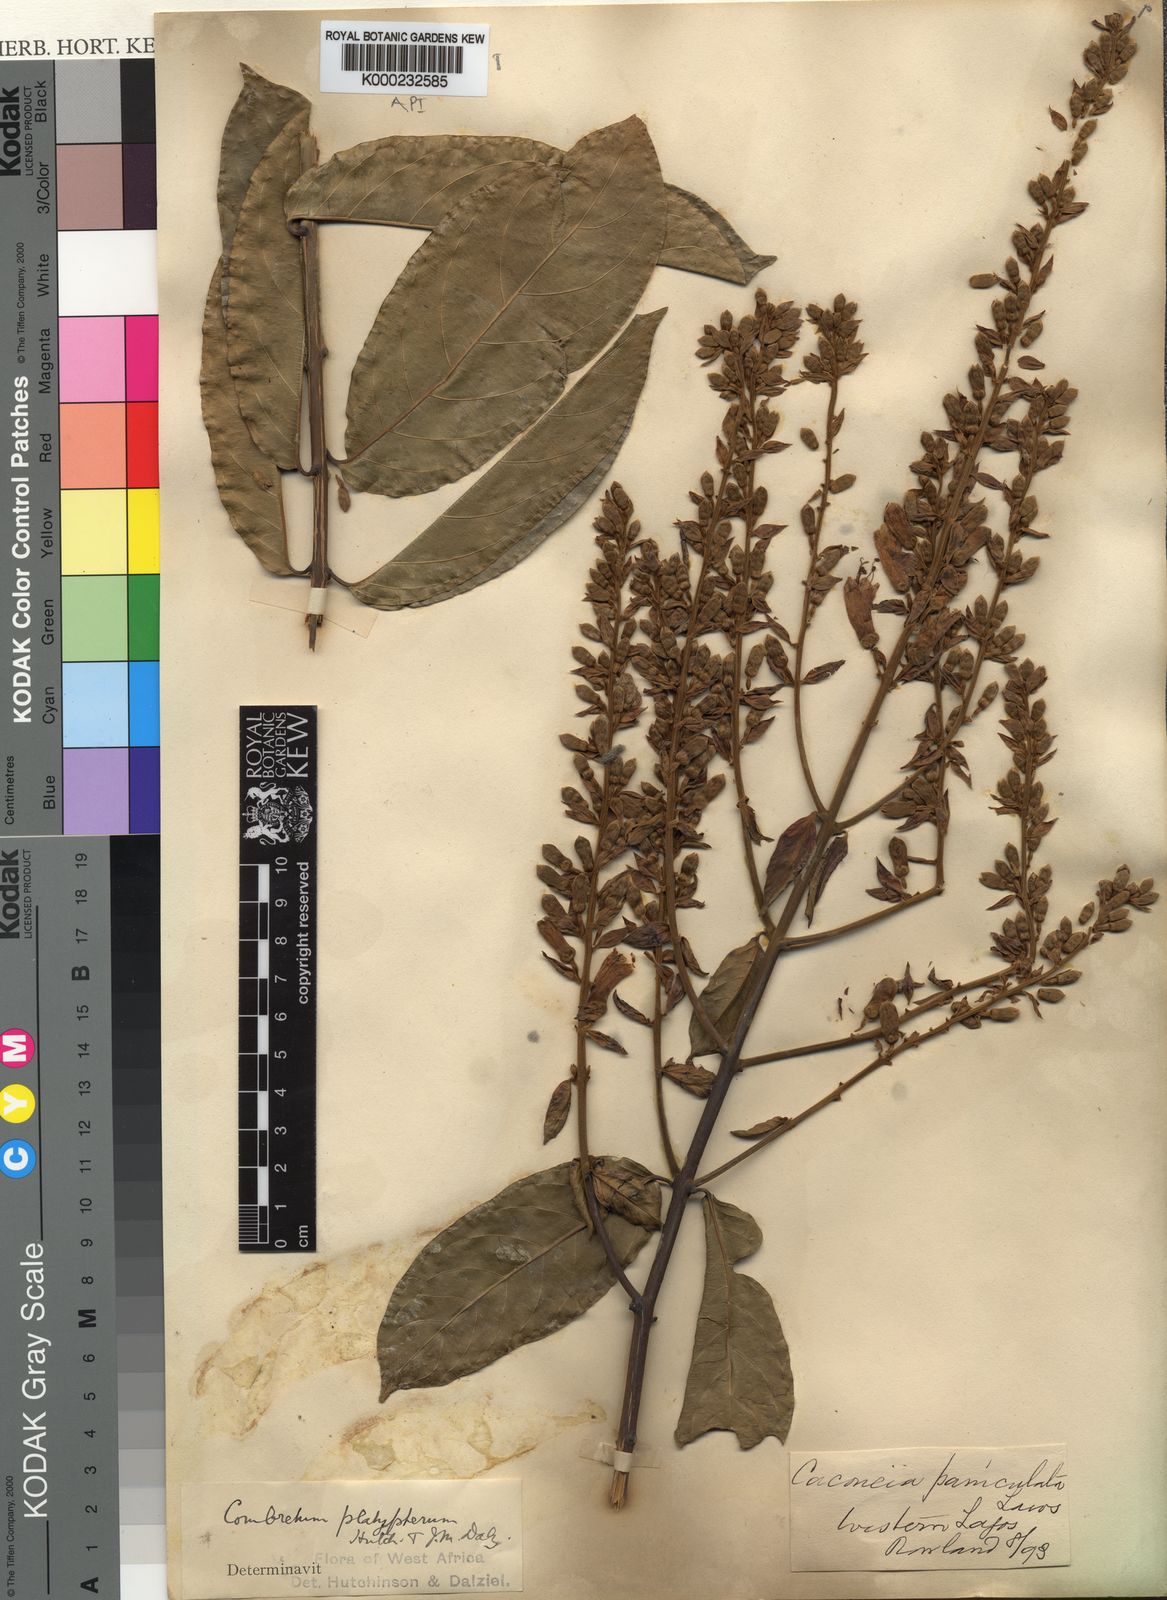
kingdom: Plantae
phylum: Tracheophyta
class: Magnoliopsida
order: Myrtales
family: Combretaceae
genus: Combretum
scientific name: Combretum platypterum
